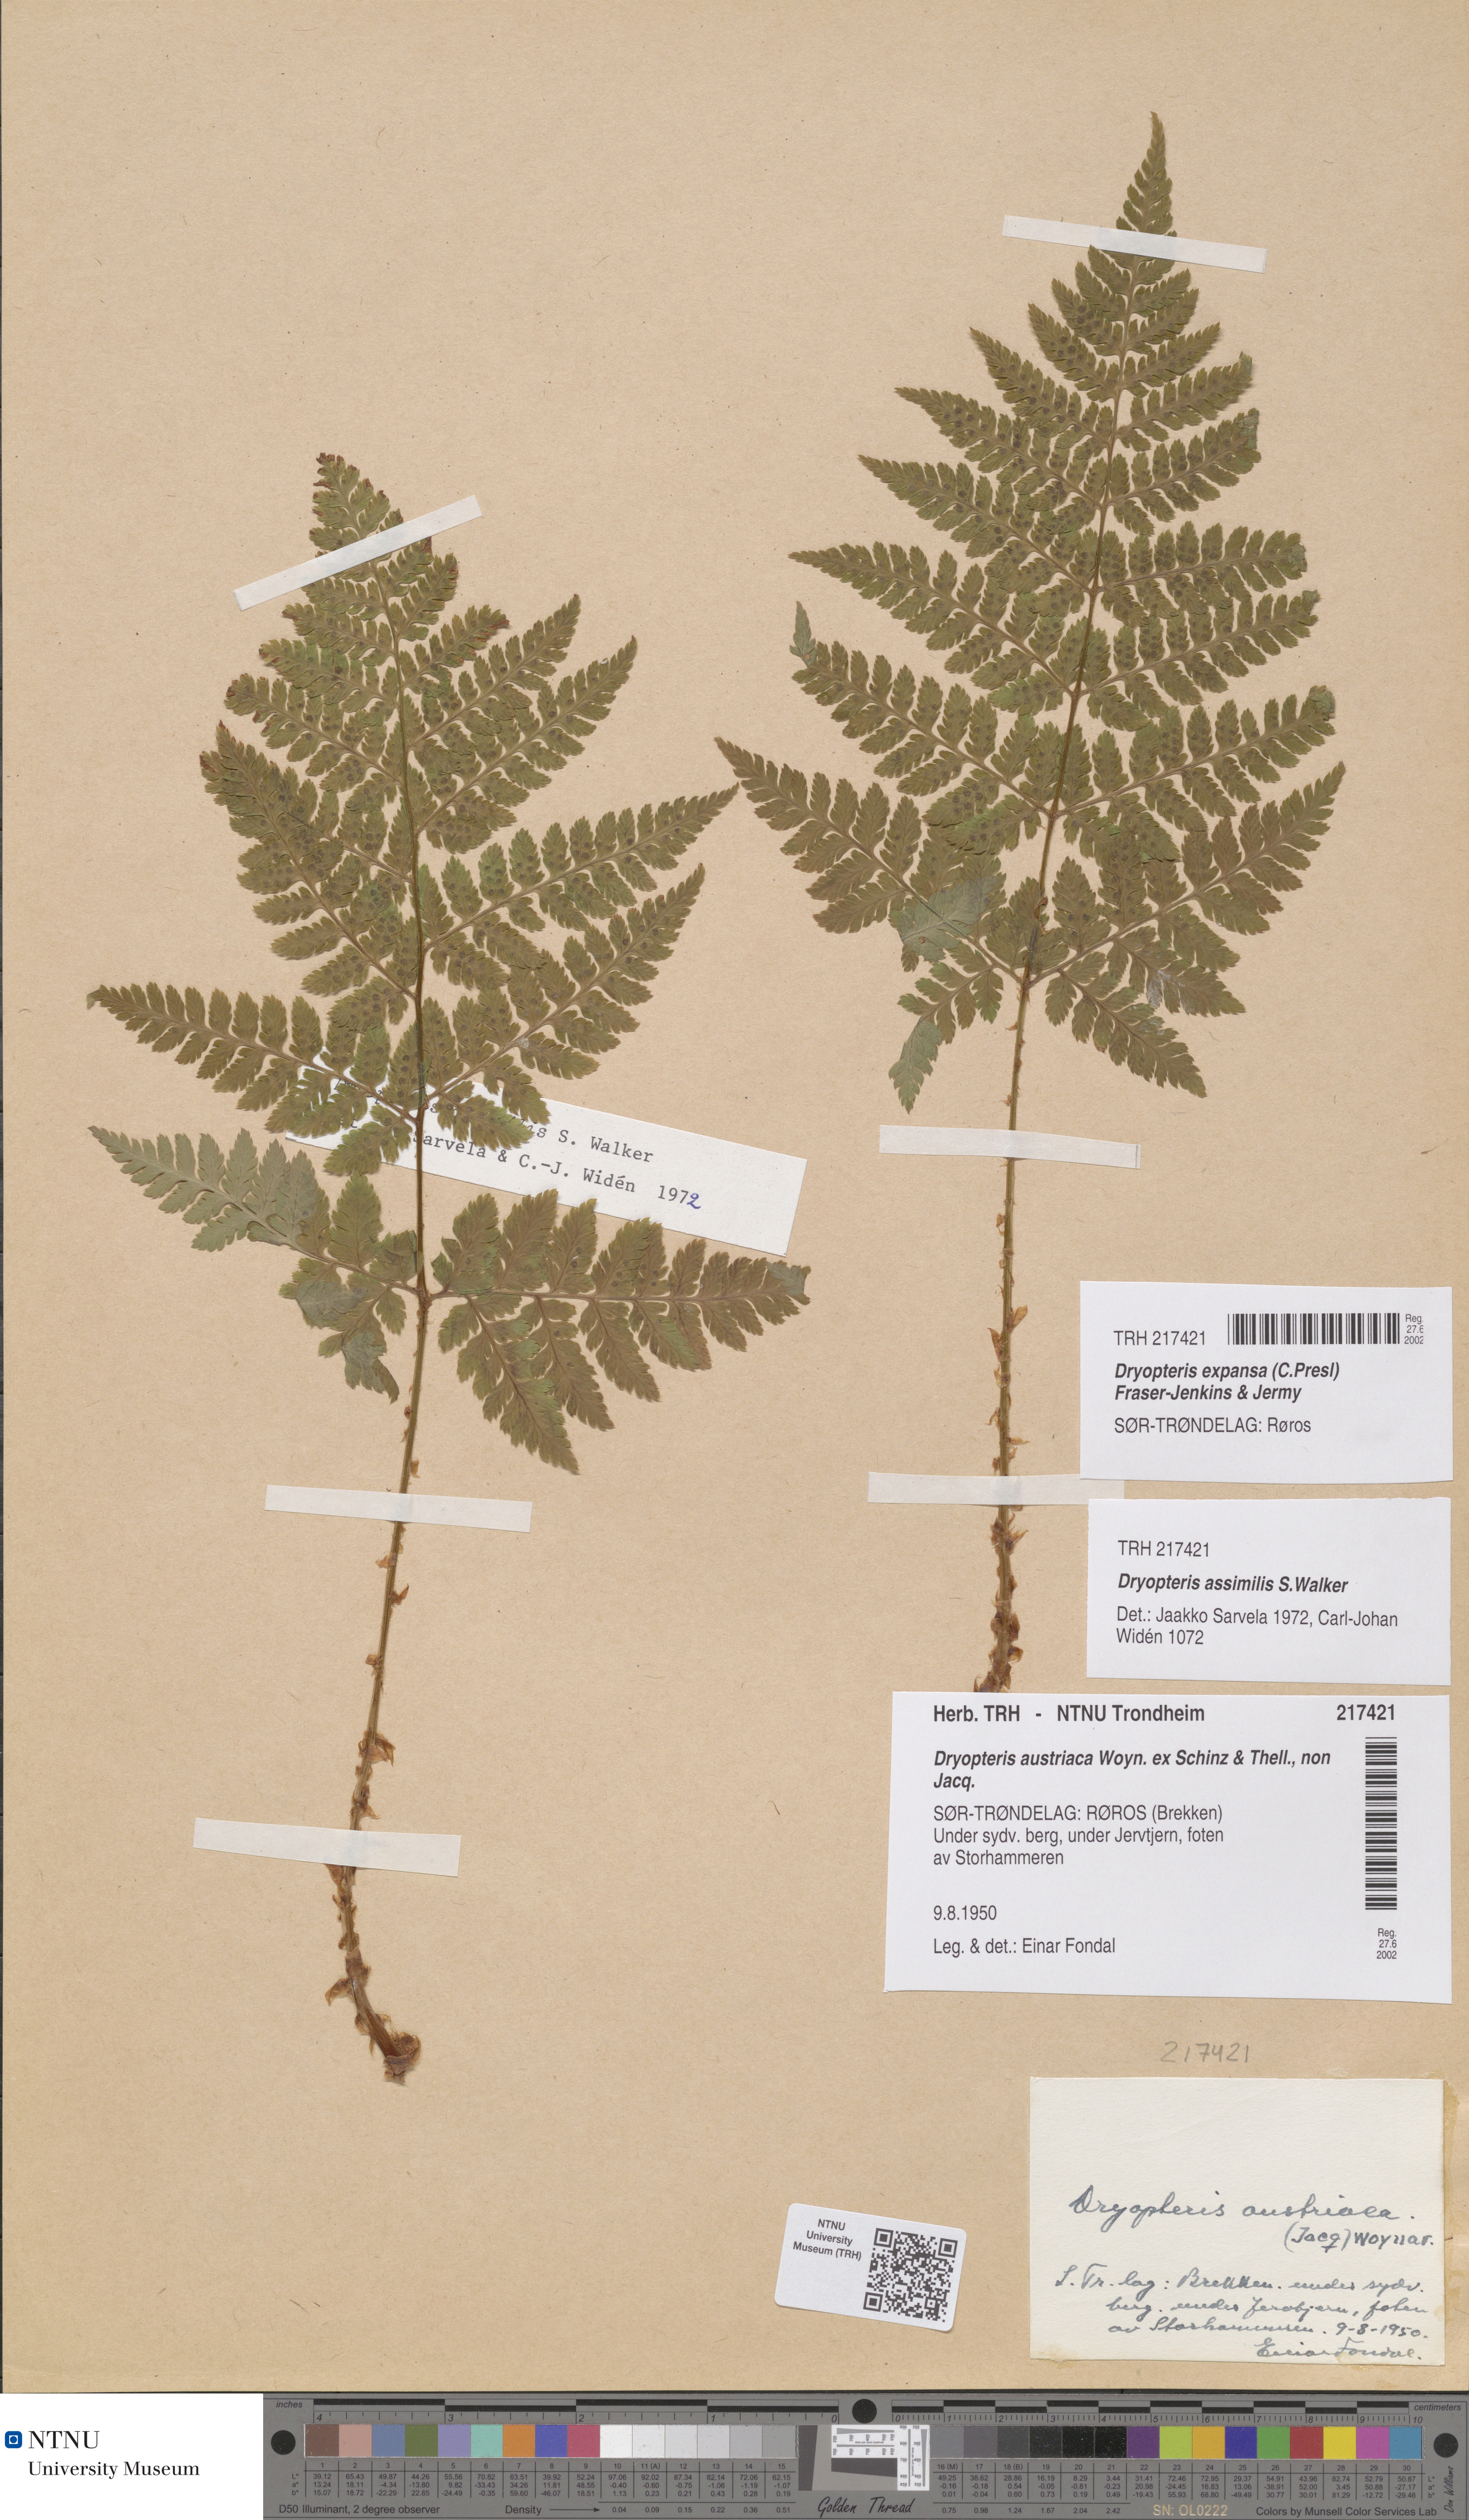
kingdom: Plantae
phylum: Tracheophyta
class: Polypodiopsida
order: Polypodiales
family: Dryopteridaceae
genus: Dryopteris
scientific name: Dryopteris expansa
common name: Northern buckler fern
